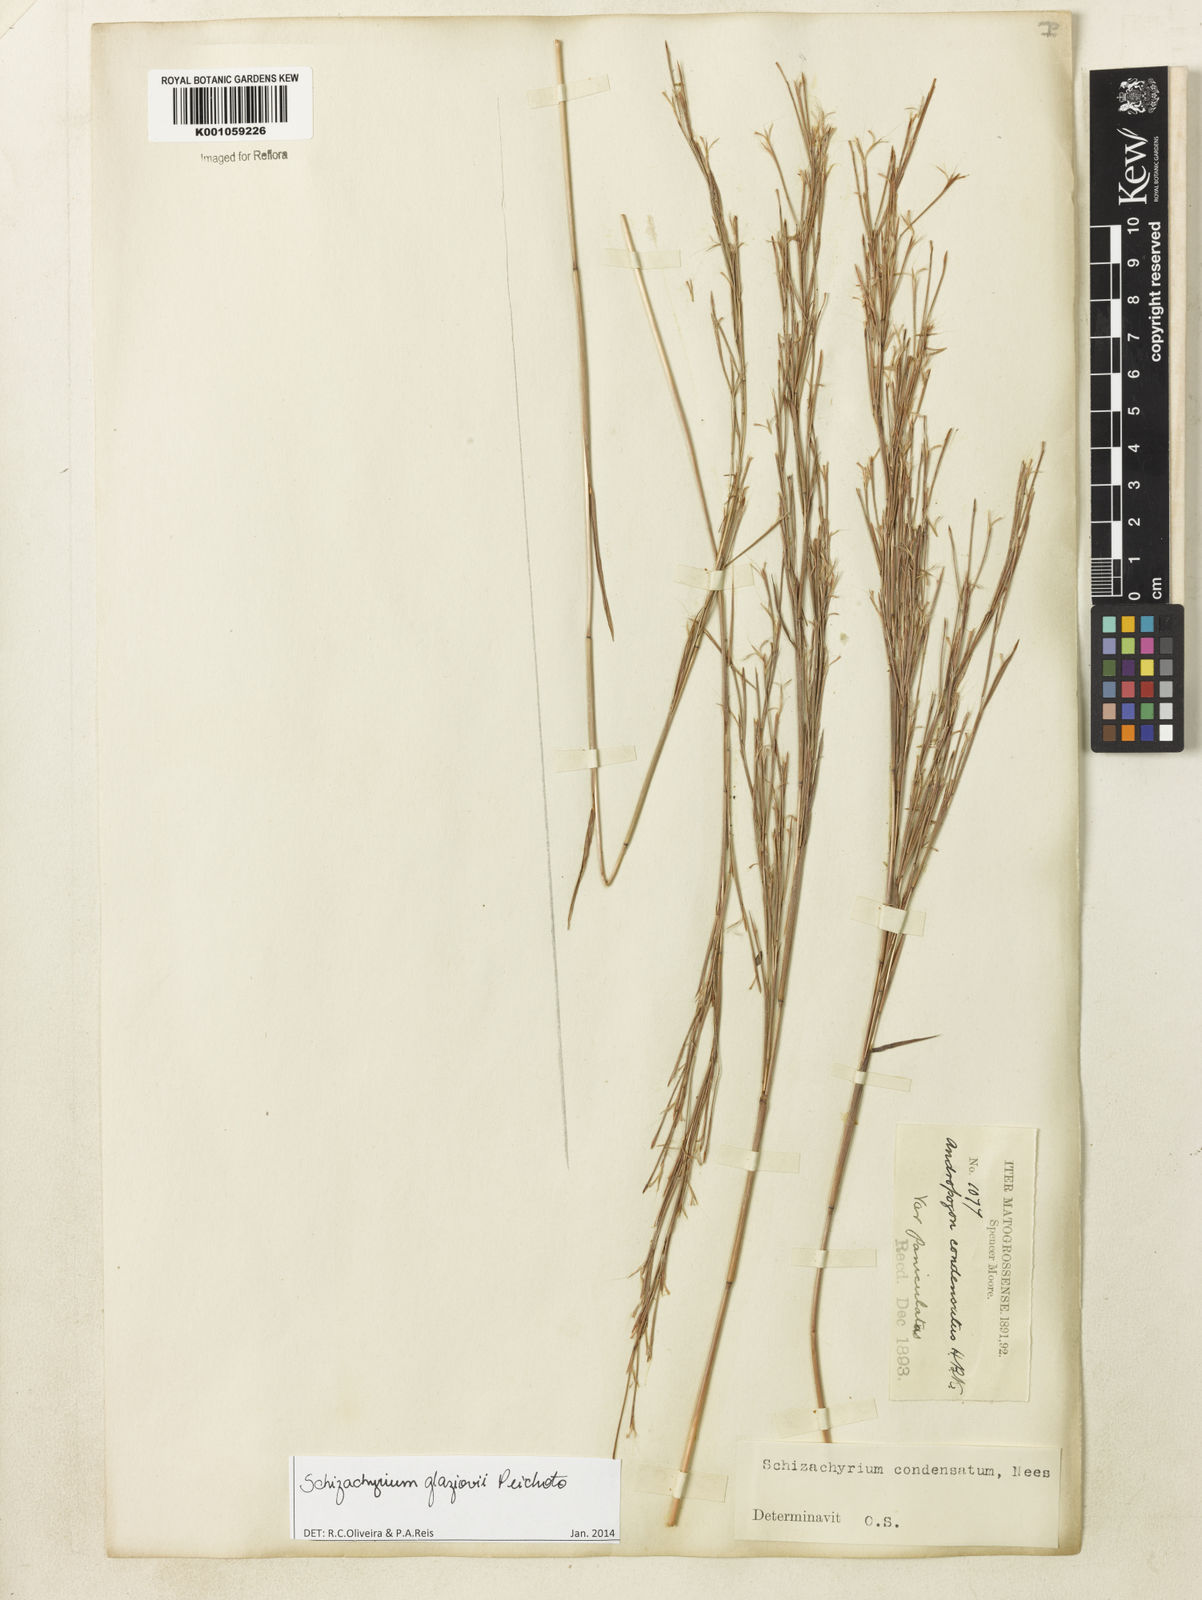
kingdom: Plantae
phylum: Tracheophyta
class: Liliopsida
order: Poales
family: Poaceae
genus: Schizachyrium
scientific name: Schizachyrium glaziovii
